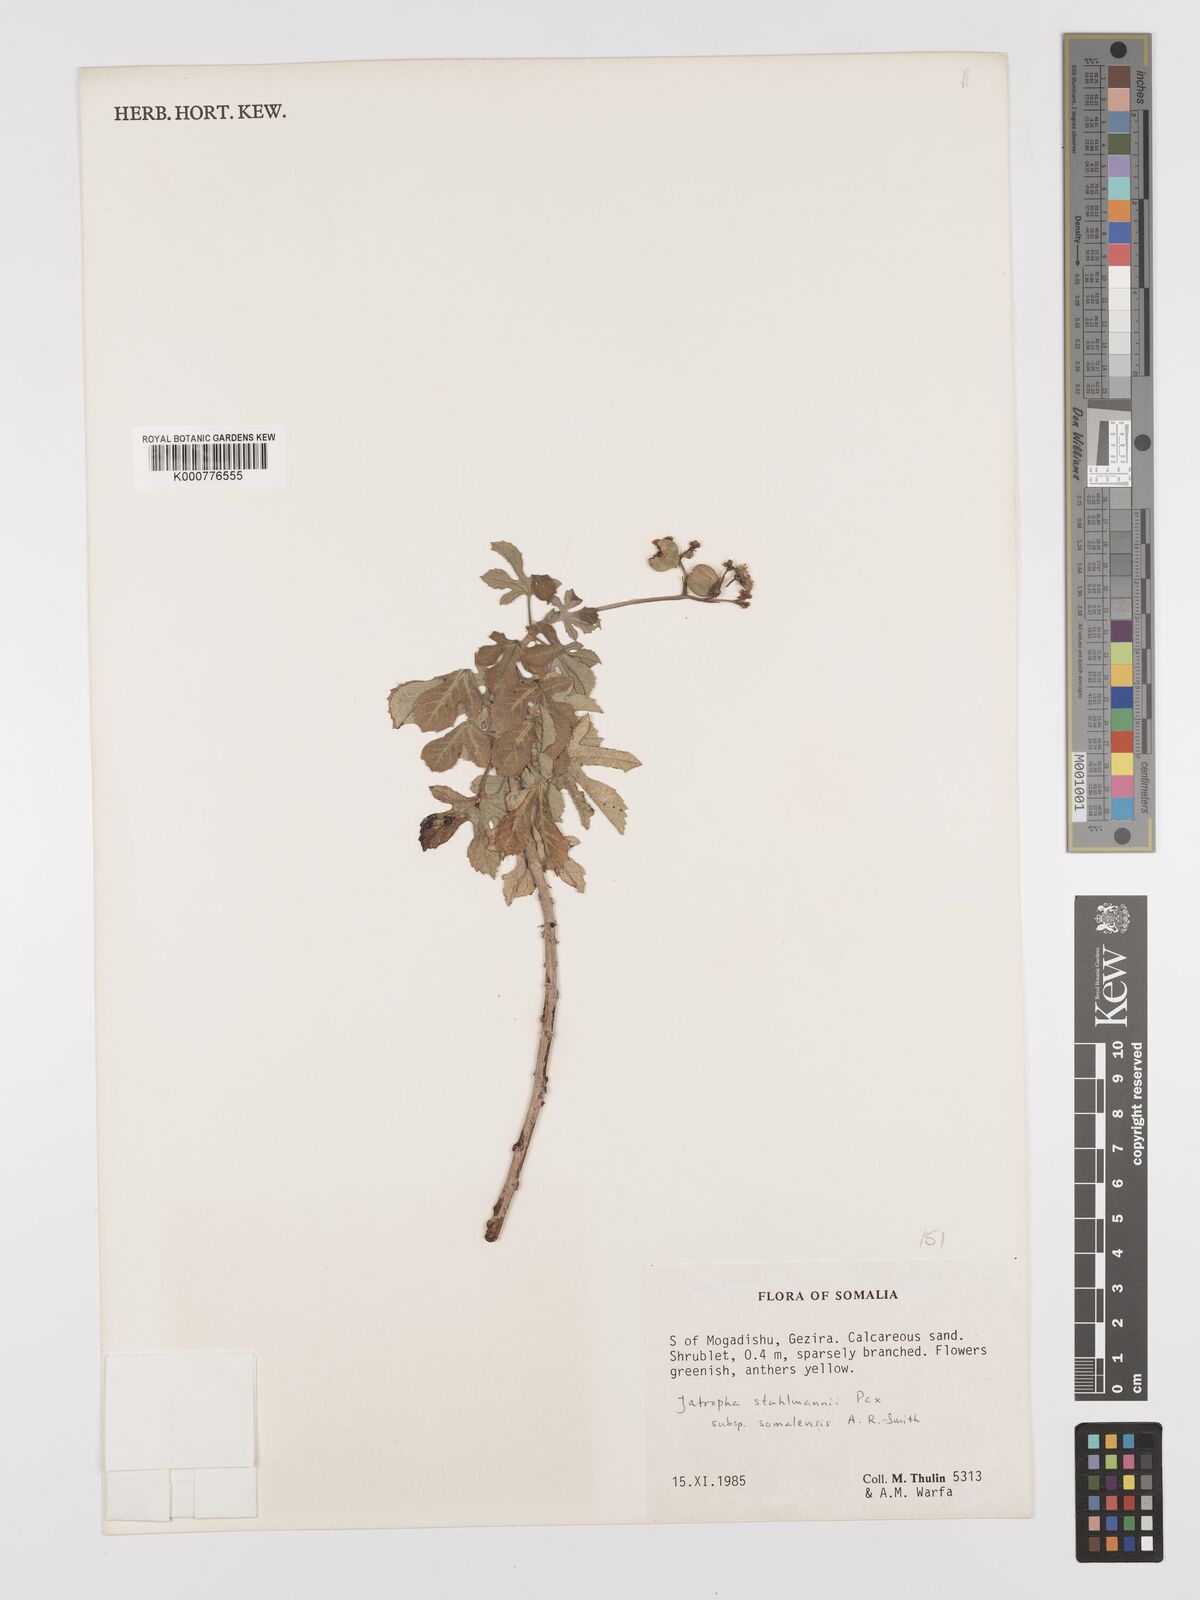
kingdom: Plantae
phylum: Tracheophyta
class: Magnoliopsida
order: Malpighiales
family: Euphorbiaceae
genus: Jatropha
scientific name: Jatropha stuhlmannii
